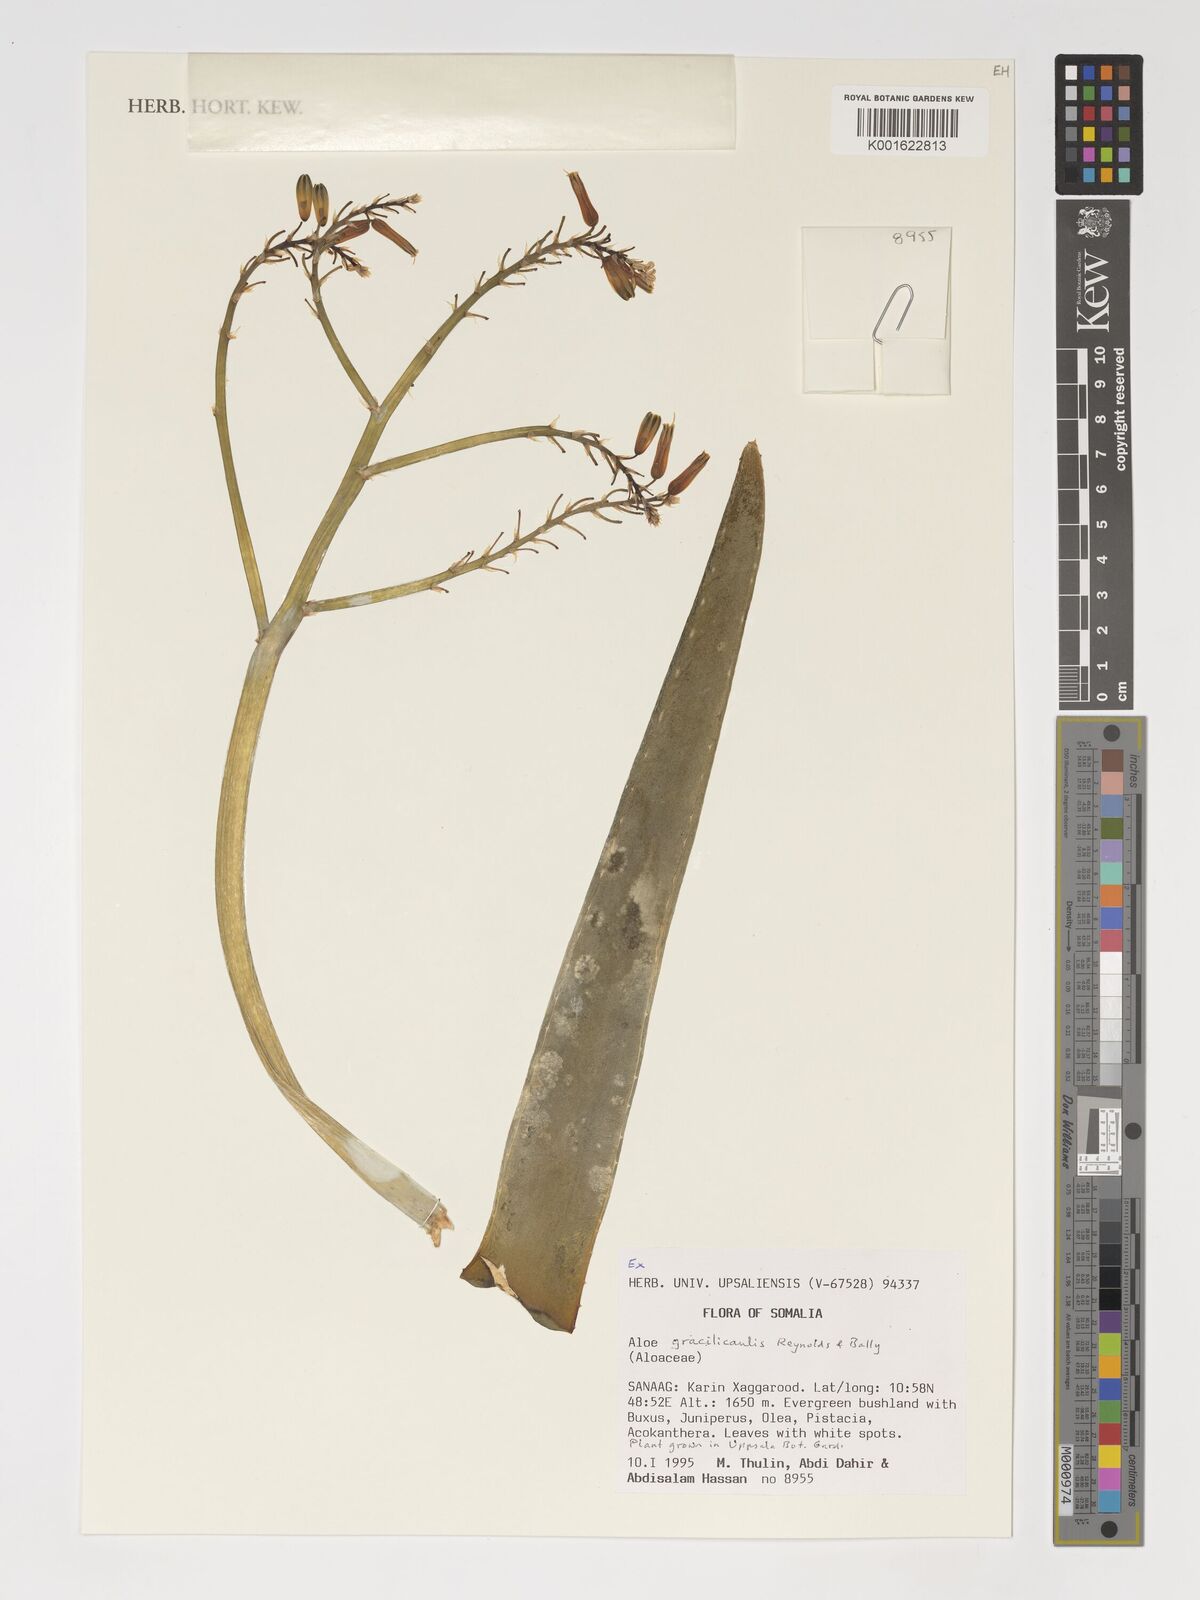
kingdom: Plantae
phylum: Tracheophyta
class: Liliopsida
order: Asparagales
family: Asphodelaceae
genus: Aloe
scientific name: Aloe gracilicaulis
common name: Soft distant sword-leaved aloe
